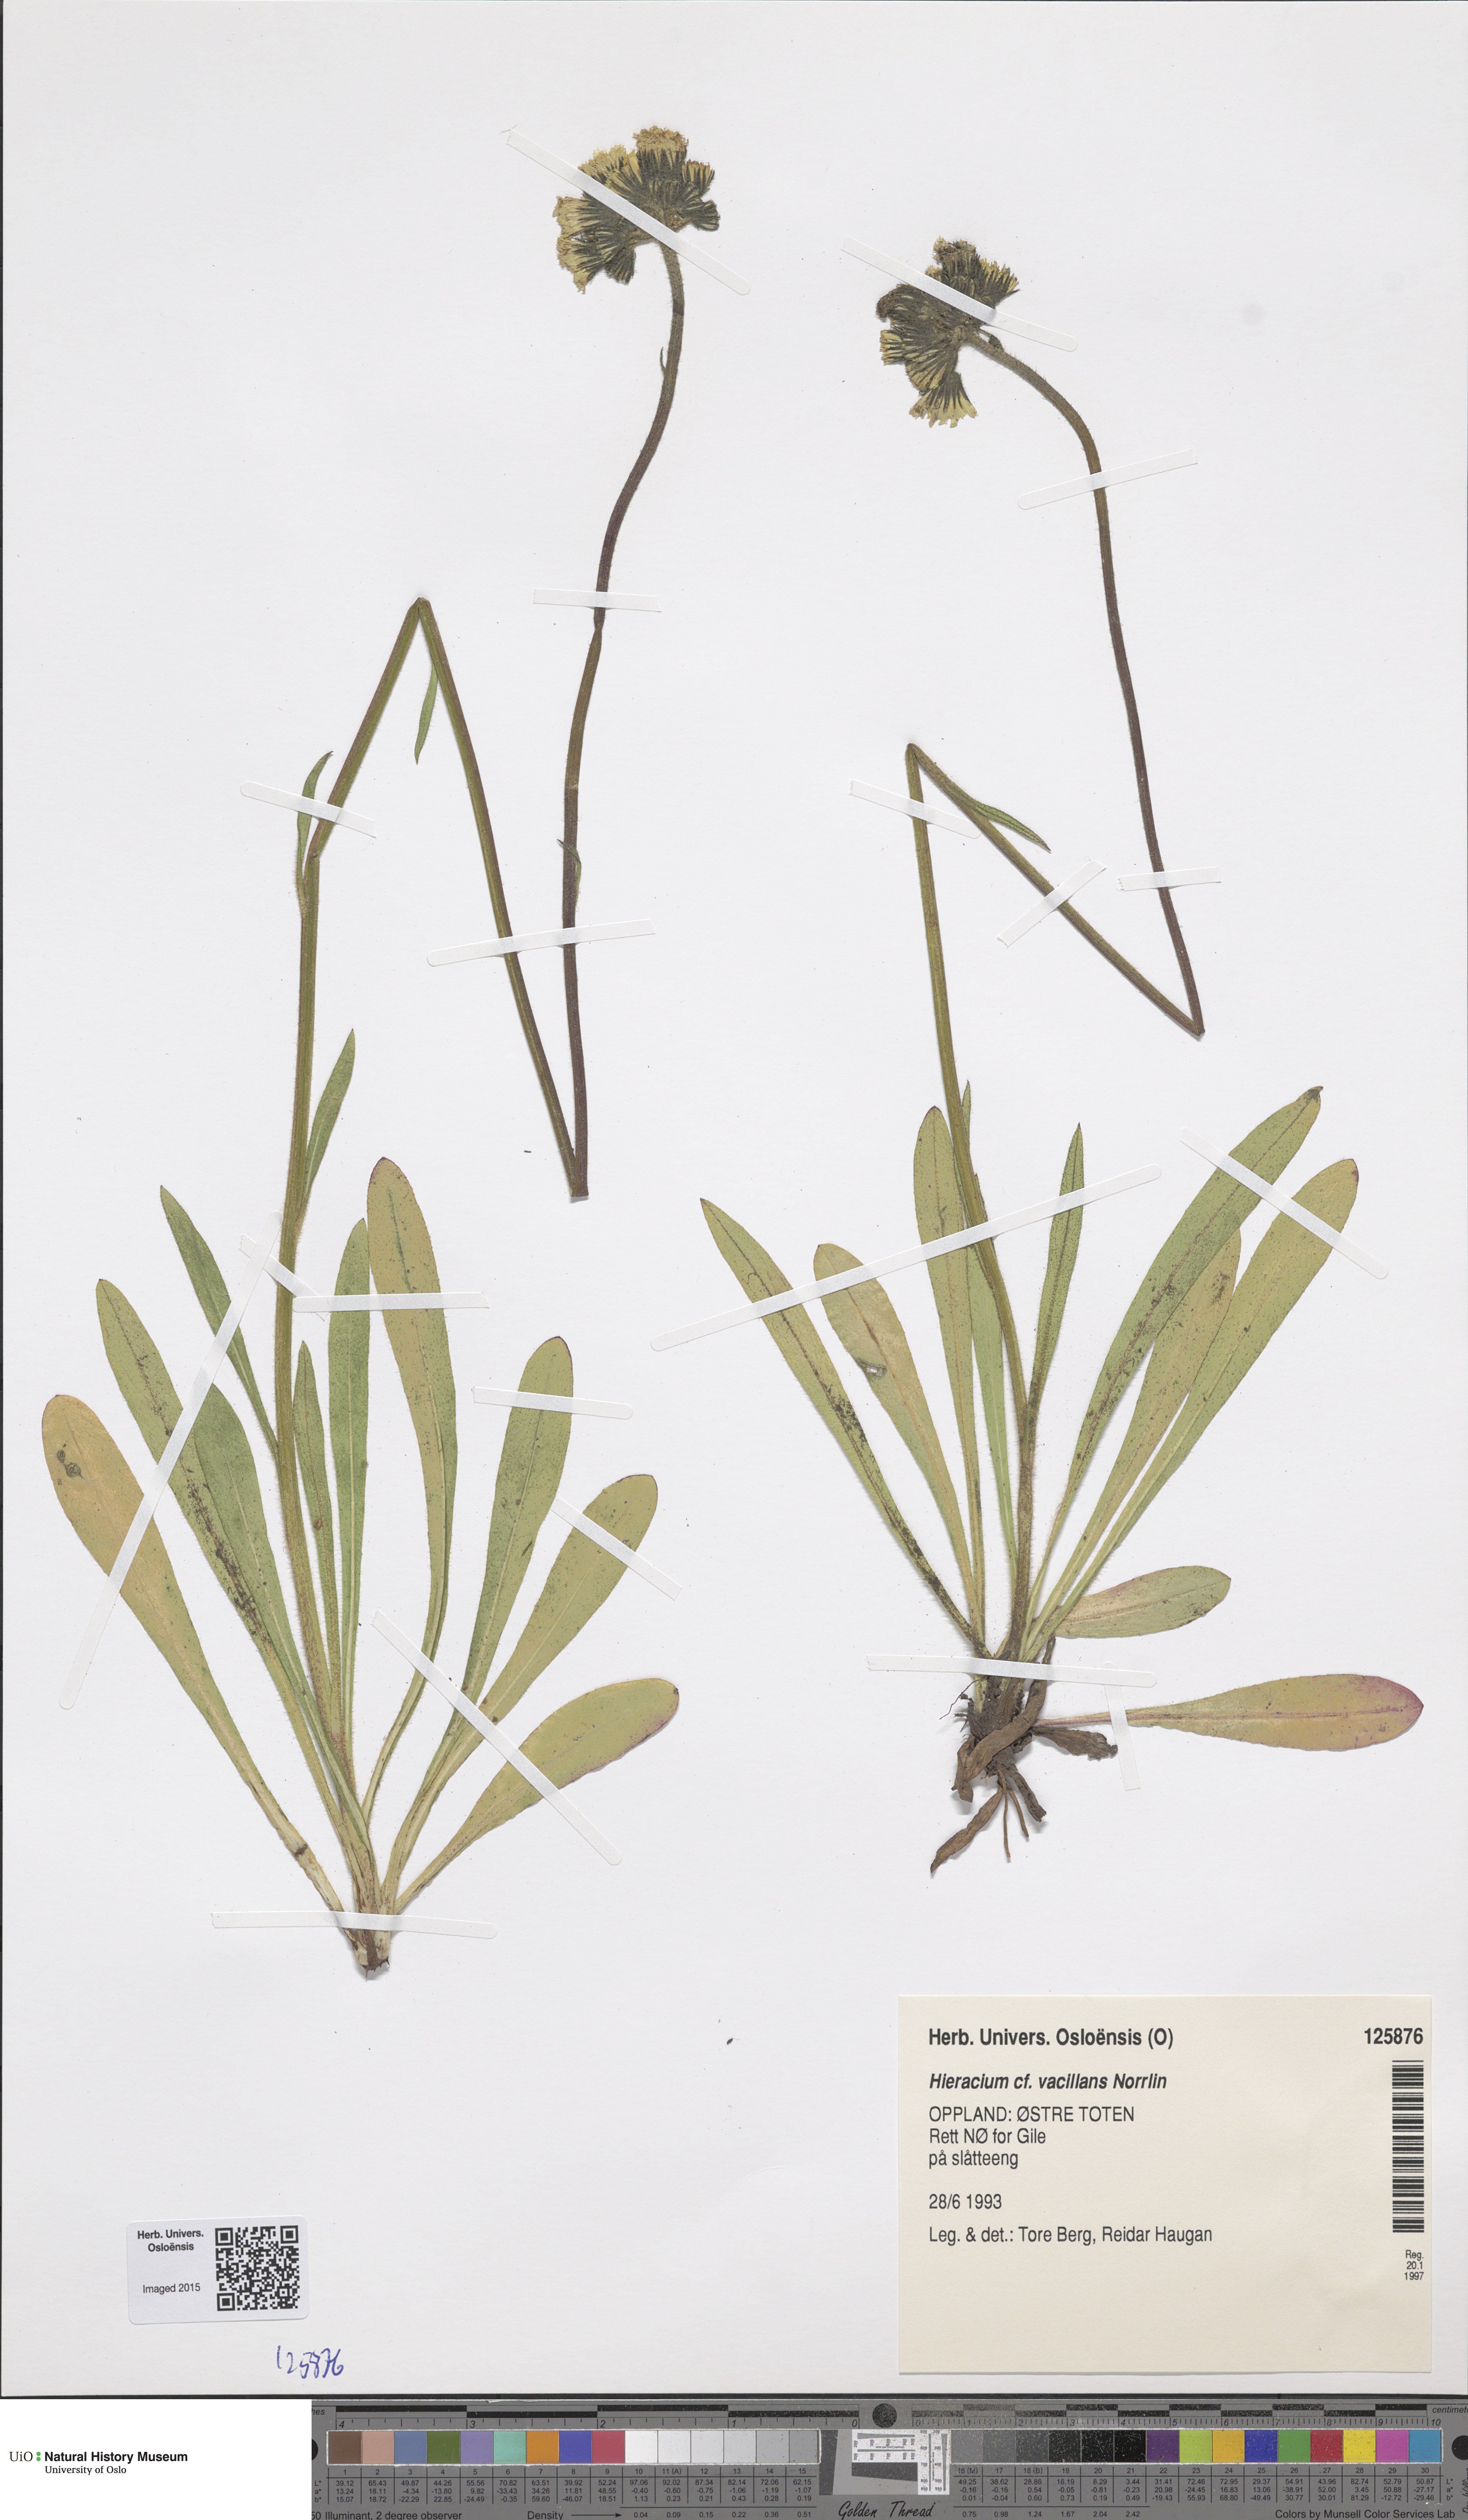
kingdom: Plantae
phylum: Tracheophyta
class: Magnoliopsida
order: Asterales
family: Asteraceae
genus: Pilosella
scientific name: Pilosella glomerata
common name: Queen devil hawkweed
